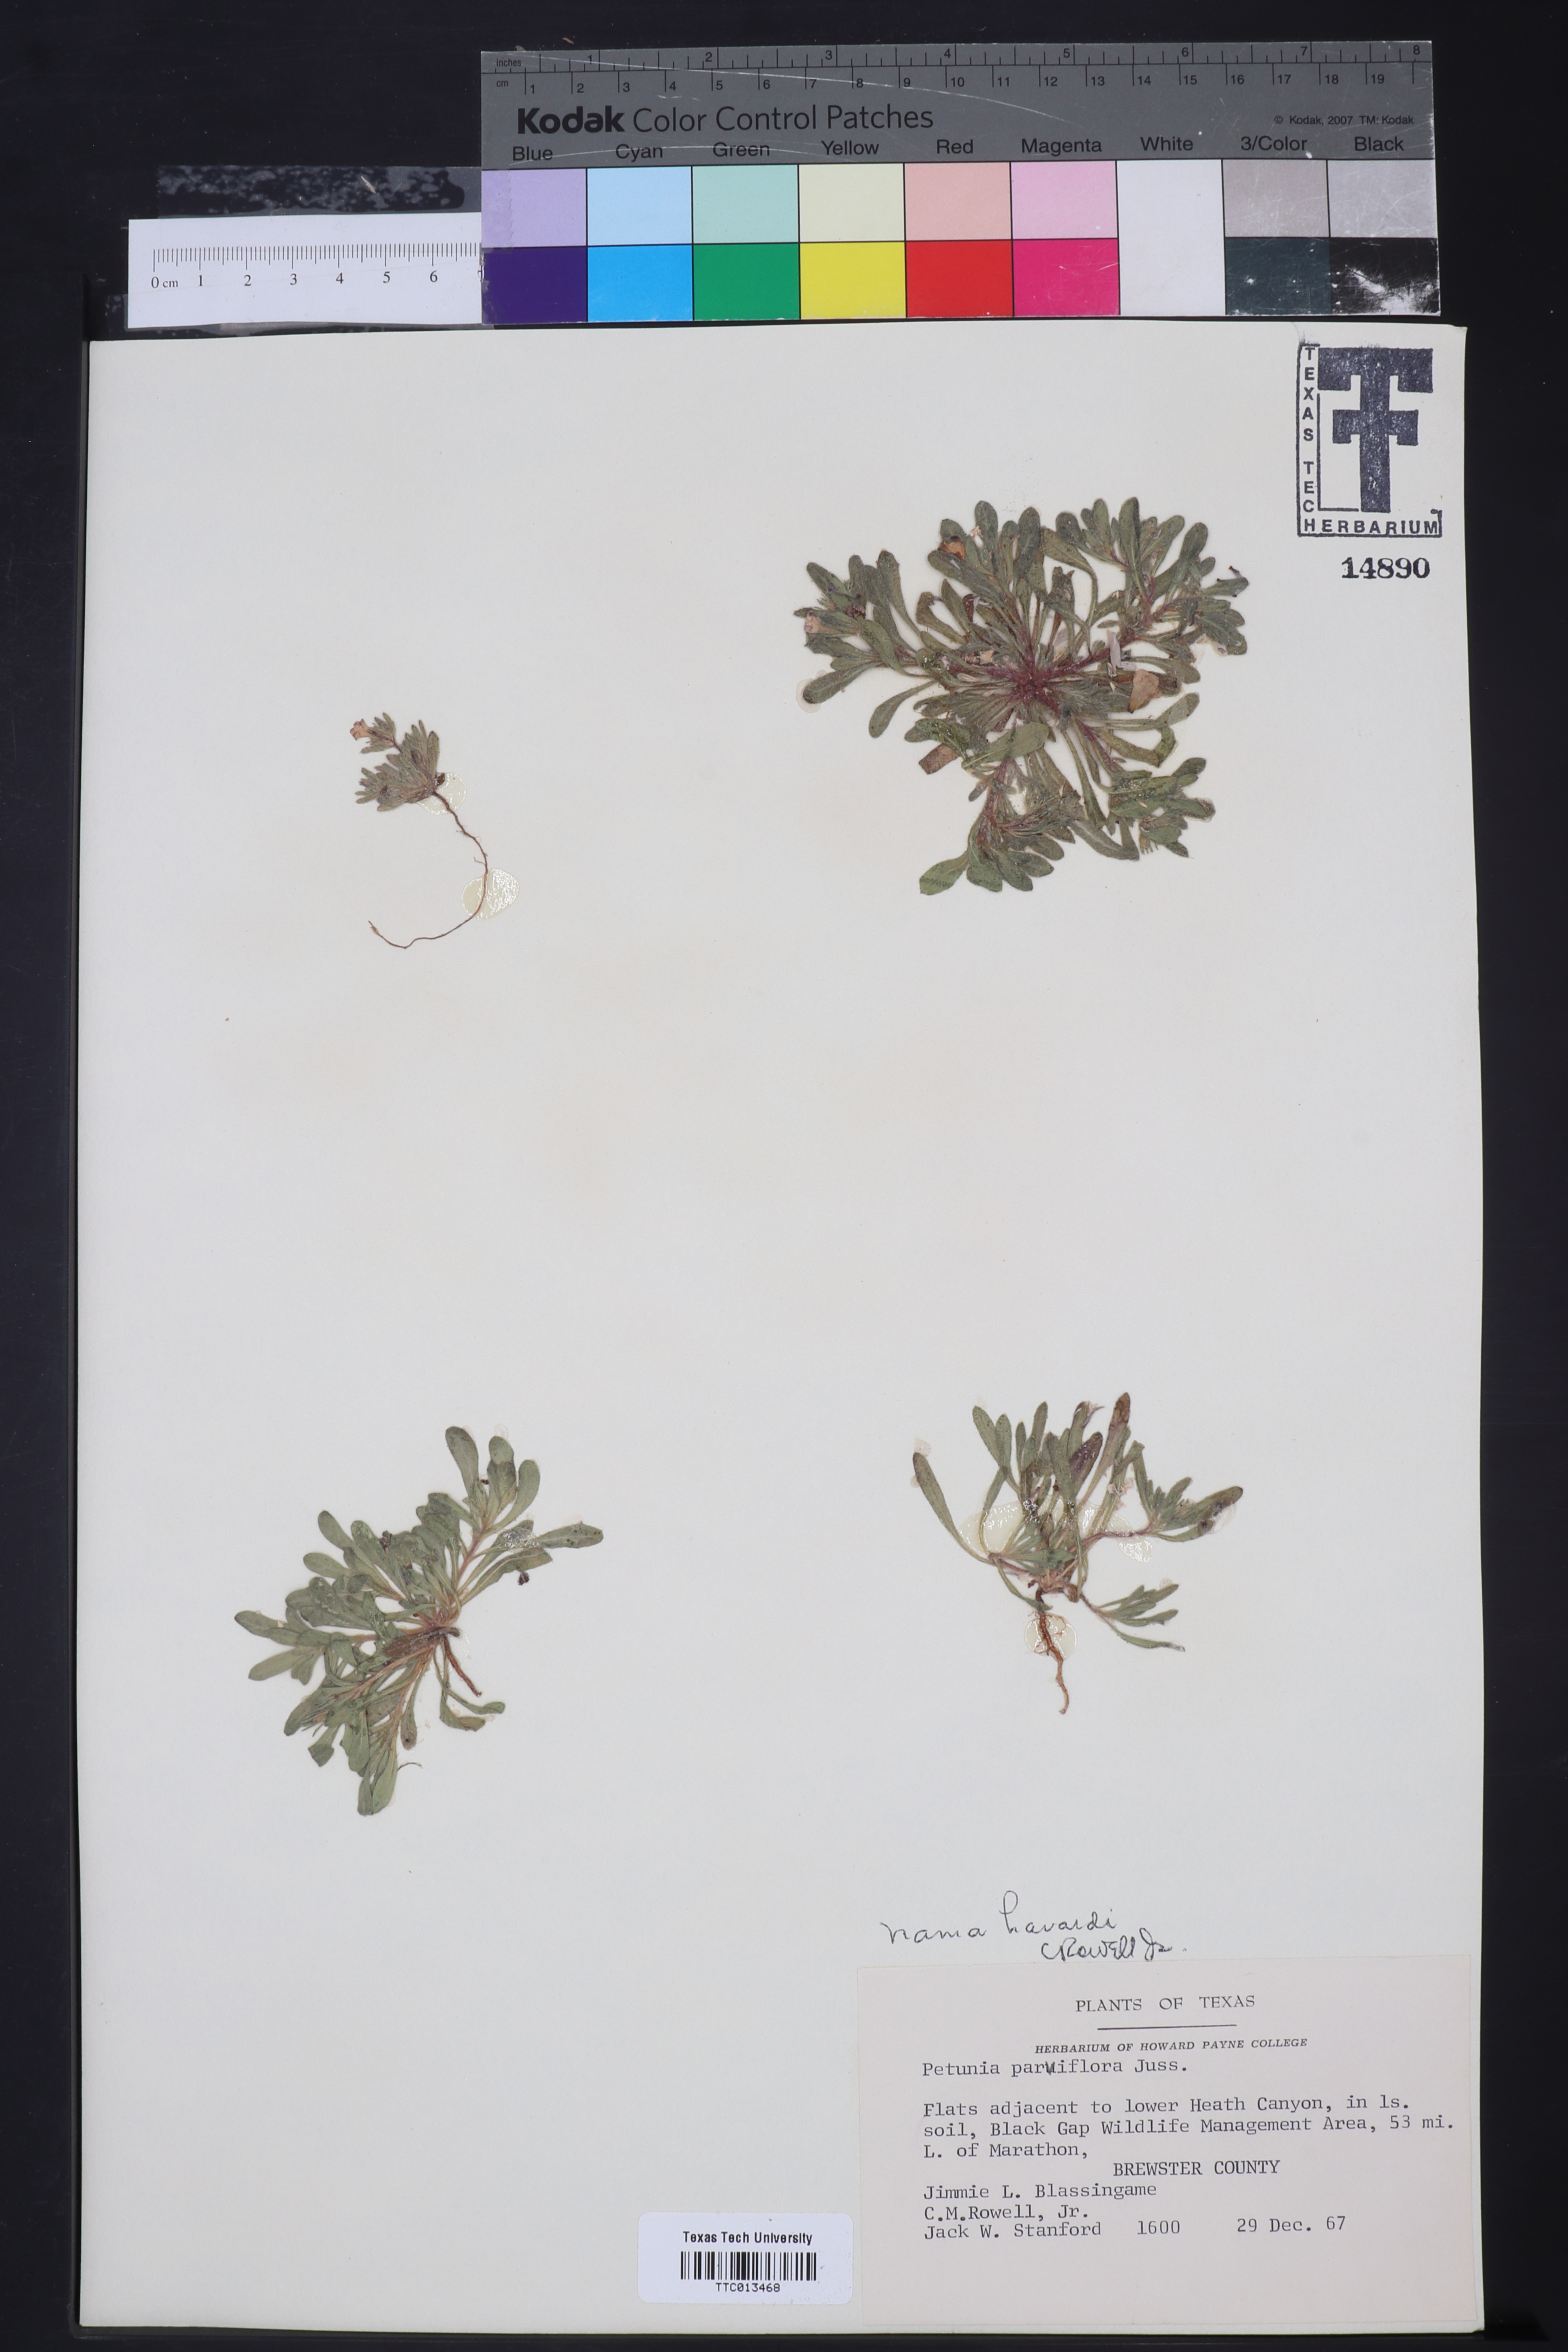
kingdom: Plantae
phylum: Tracheophyta
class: Magnoliopsida
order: Boraginales
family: Namaceae
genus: Nama
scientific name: Nama havardii
